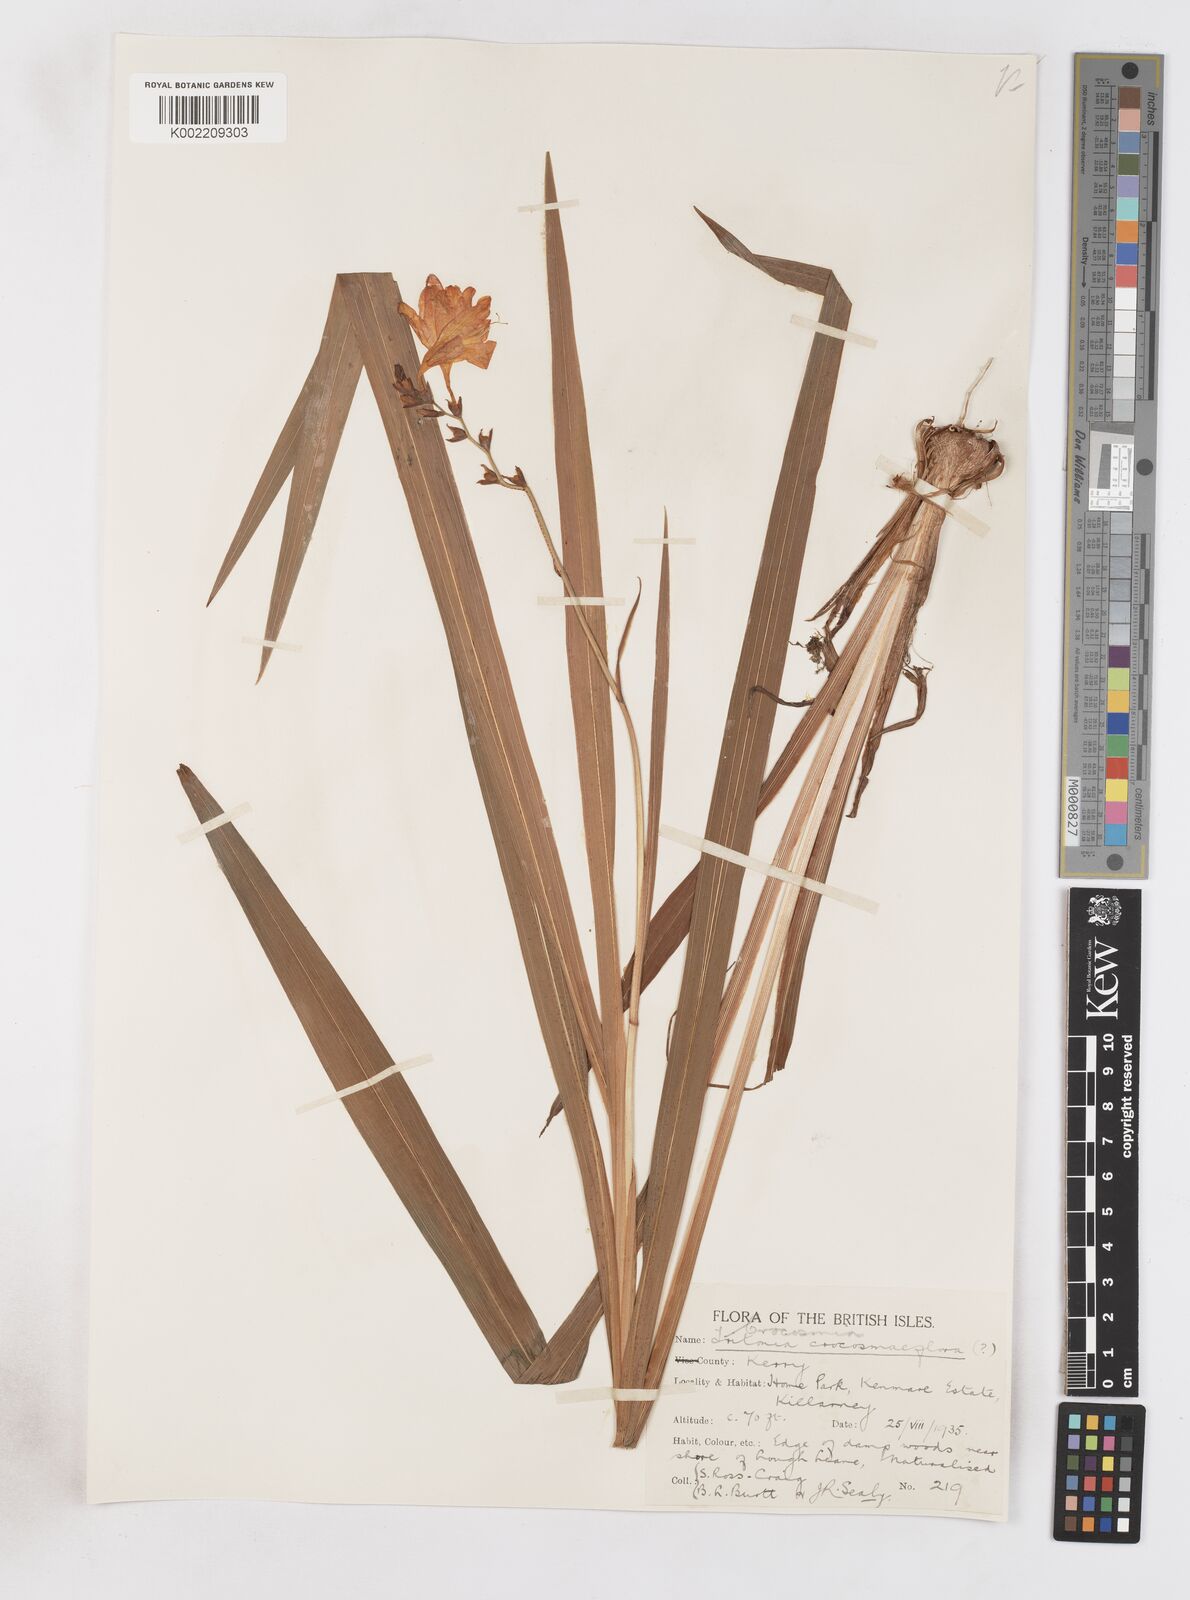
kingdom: Plantae
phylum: Tracheophyta
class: Liliopsida
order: Asparagales
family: Iridaceae
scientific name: Iridaceae
